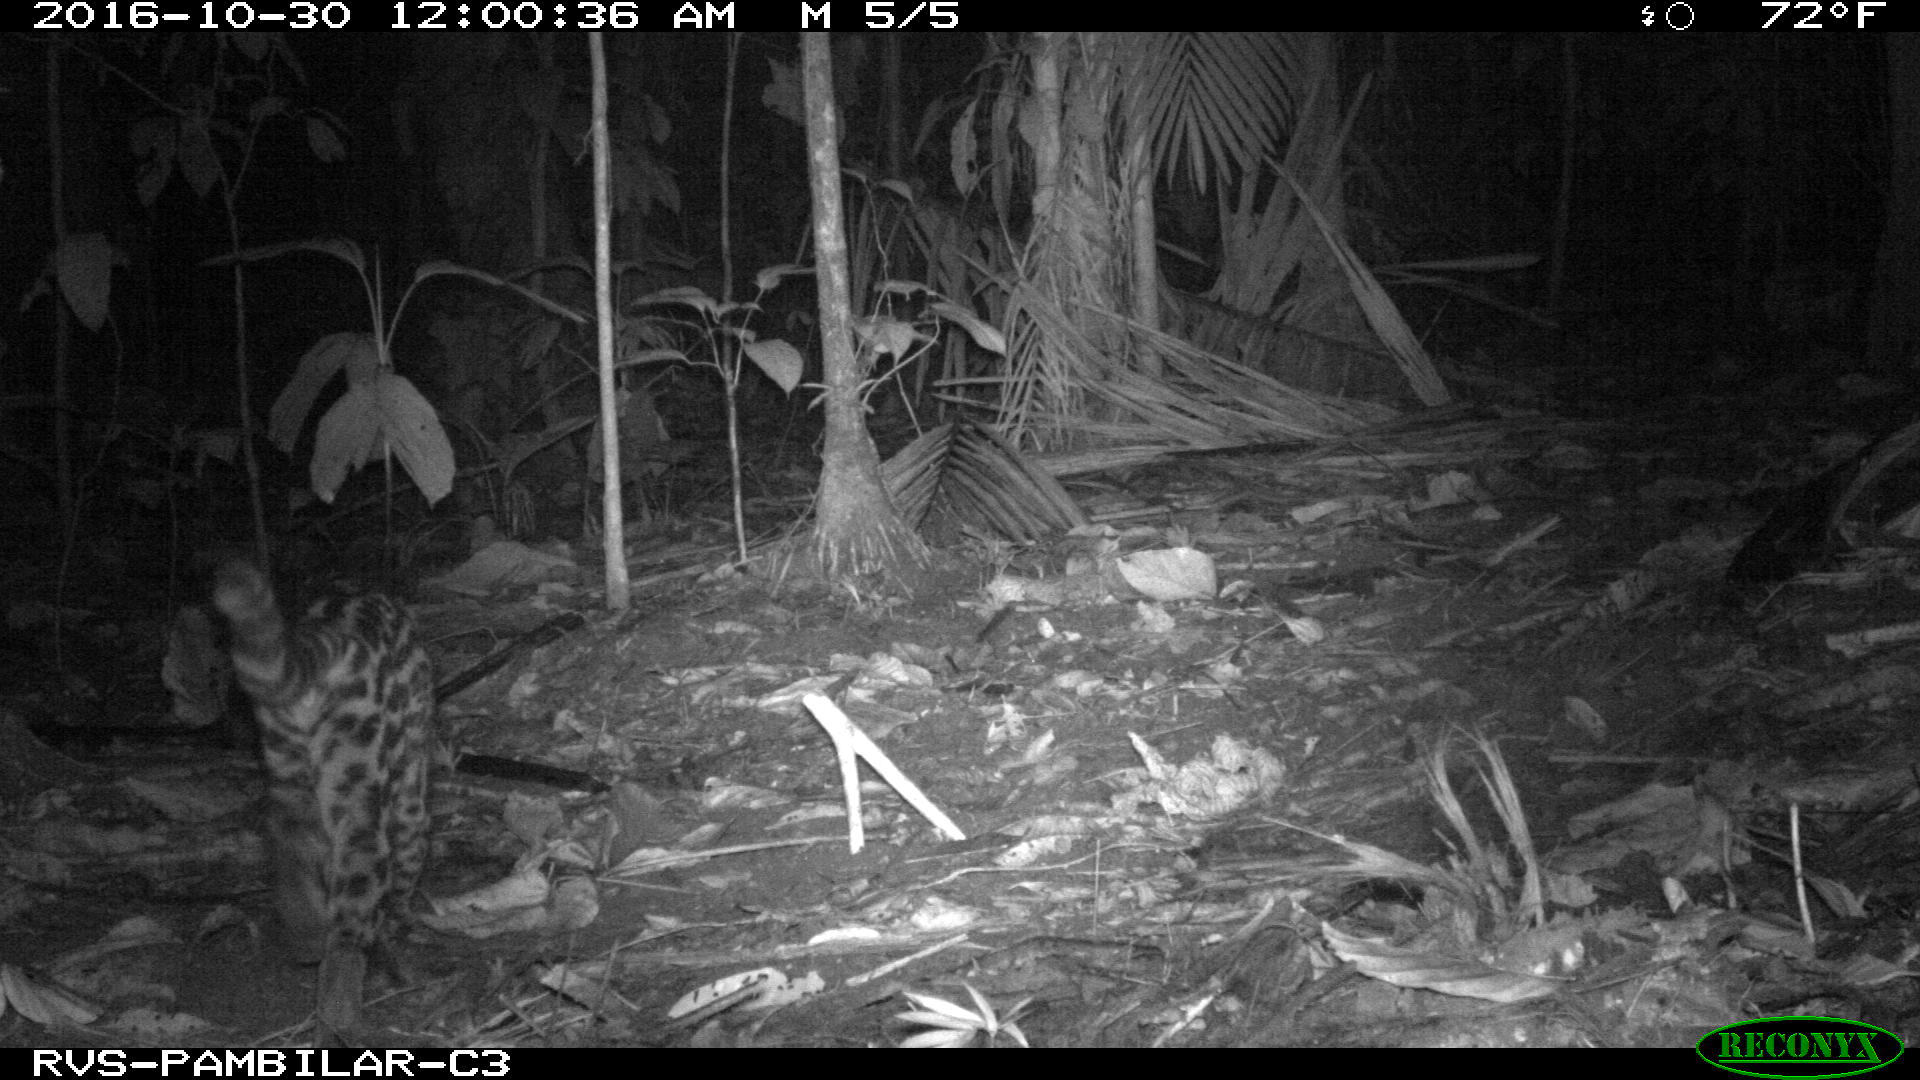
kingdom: Animalia
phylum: Chordata
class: Mammalia
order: Carnivora
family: Felidae
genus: Leopardus
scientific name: Leopardus pardalis
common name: Ocelot
